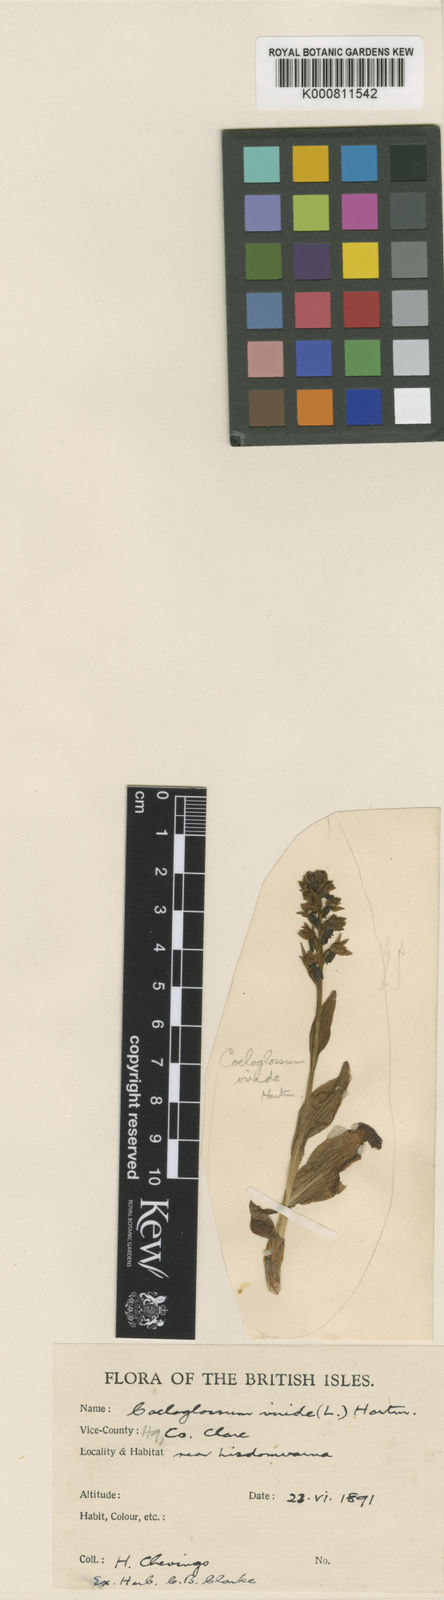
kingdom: Plantae
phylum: Tracheophyta
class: Liliopsida
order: Asparagales
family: Orchidaceae
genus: Dactylorhiza
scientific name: Dactylorhiza viridis
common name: Longbract frog orchid
